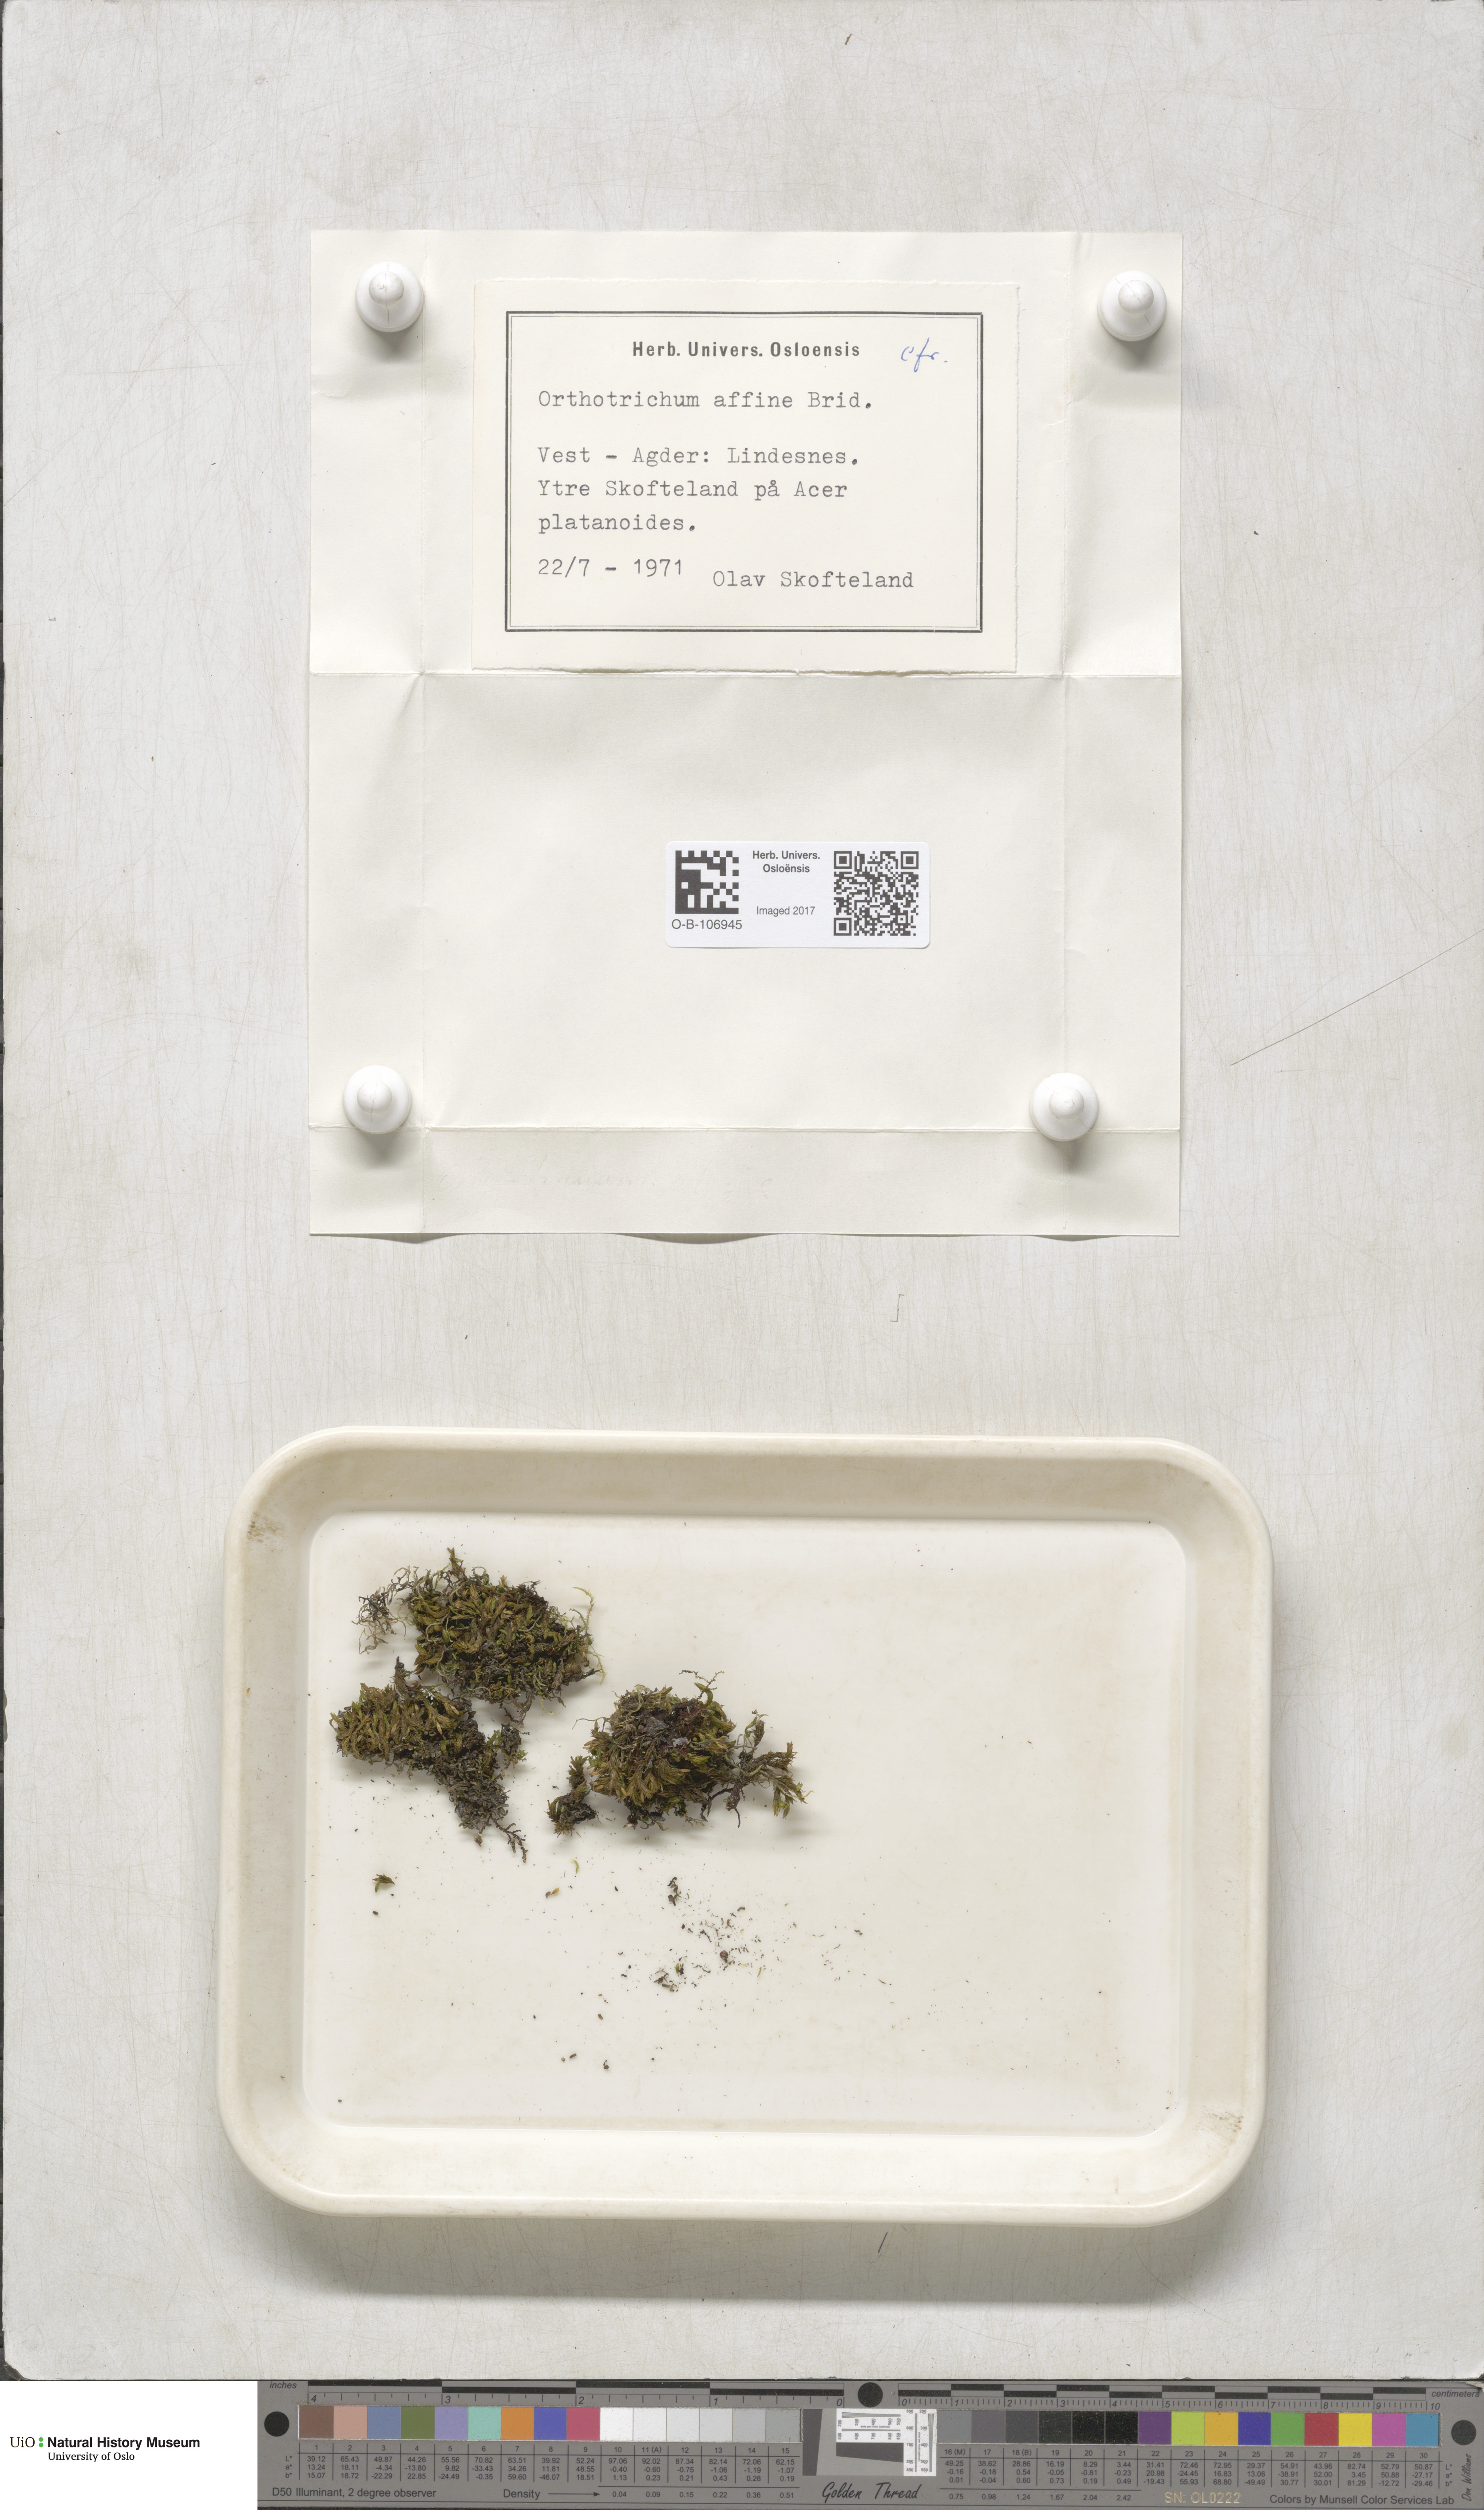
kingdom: Plantae
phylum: Bryophyta
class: Bryopsida
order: Orthotrichales
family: Orthotrichaceae
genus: Lewinskya
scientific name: Lewinskya affinis
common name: Wood bristle-moss
